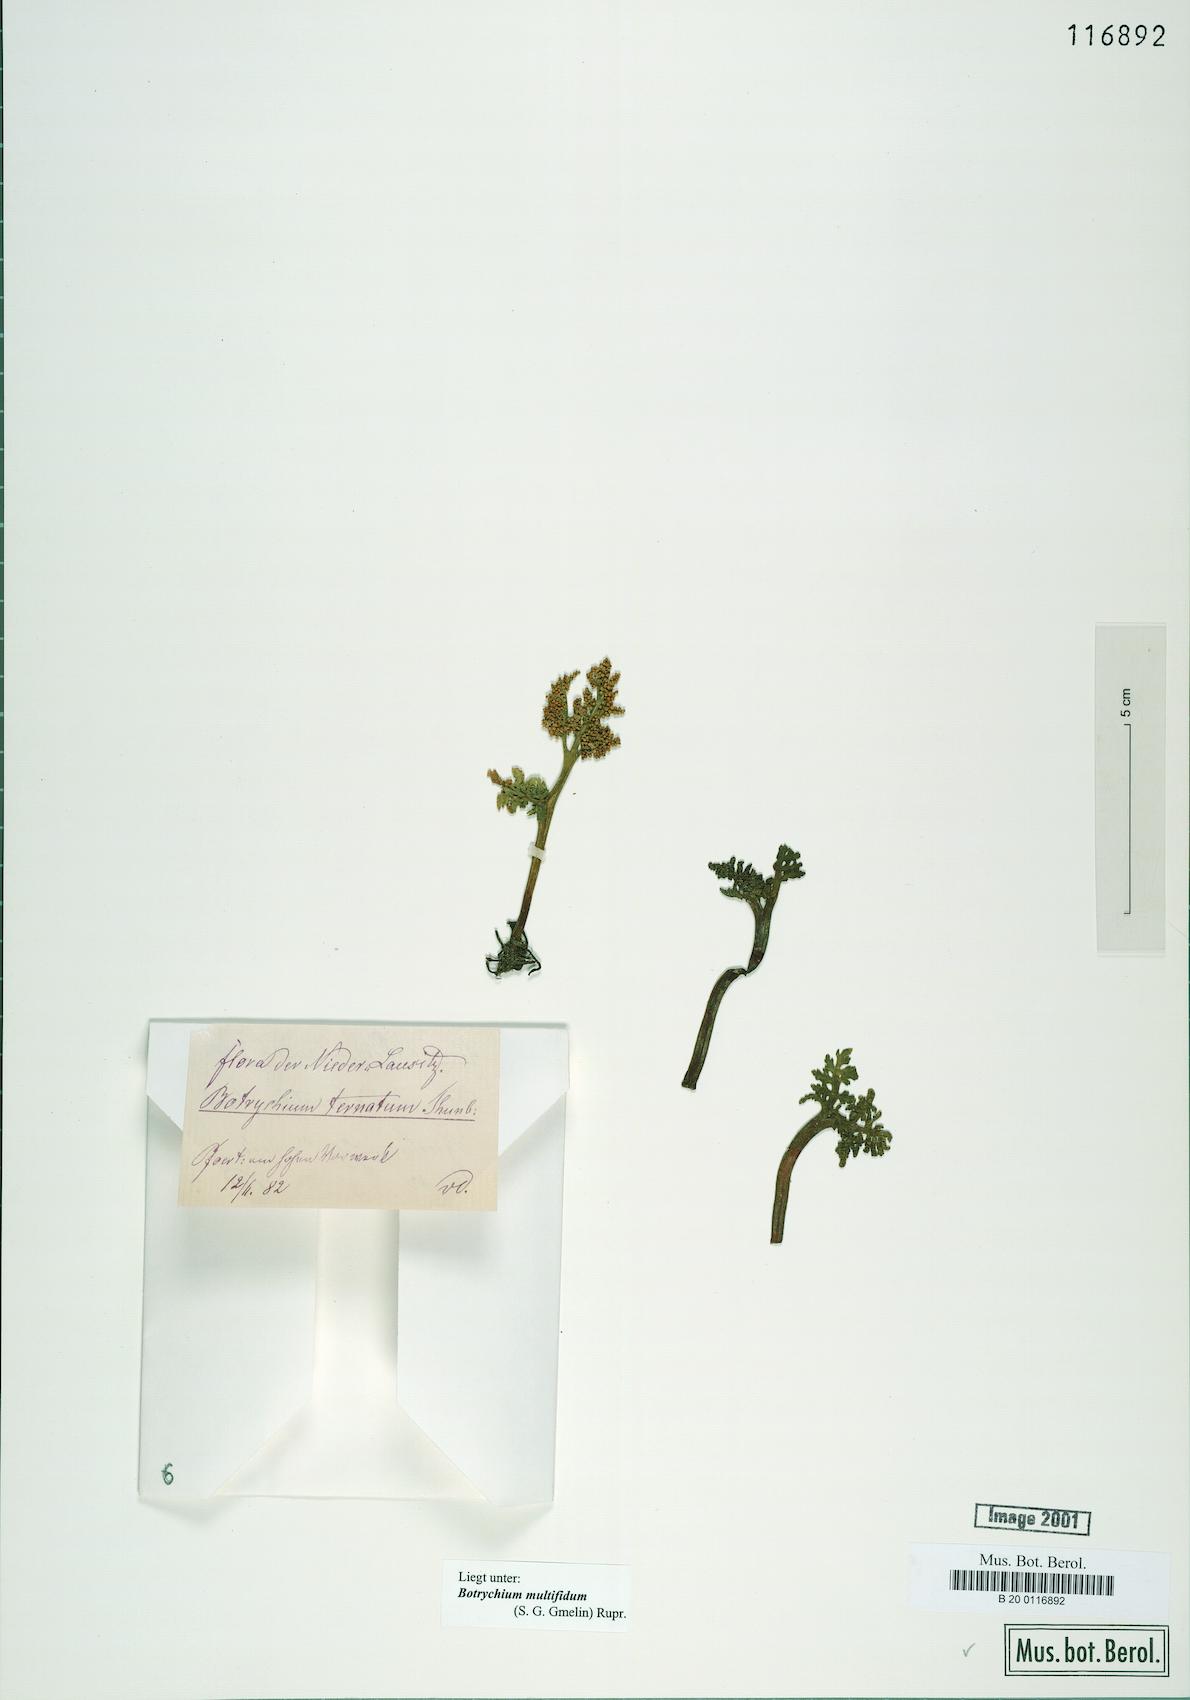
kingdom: Plantae
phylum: Tracheophyta
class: Polypodiopsida
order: Ophioglossales
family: Ophioglossaceae
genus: Sceptridium
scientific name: Sceptridium multifidum
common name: Leathery grape fern
